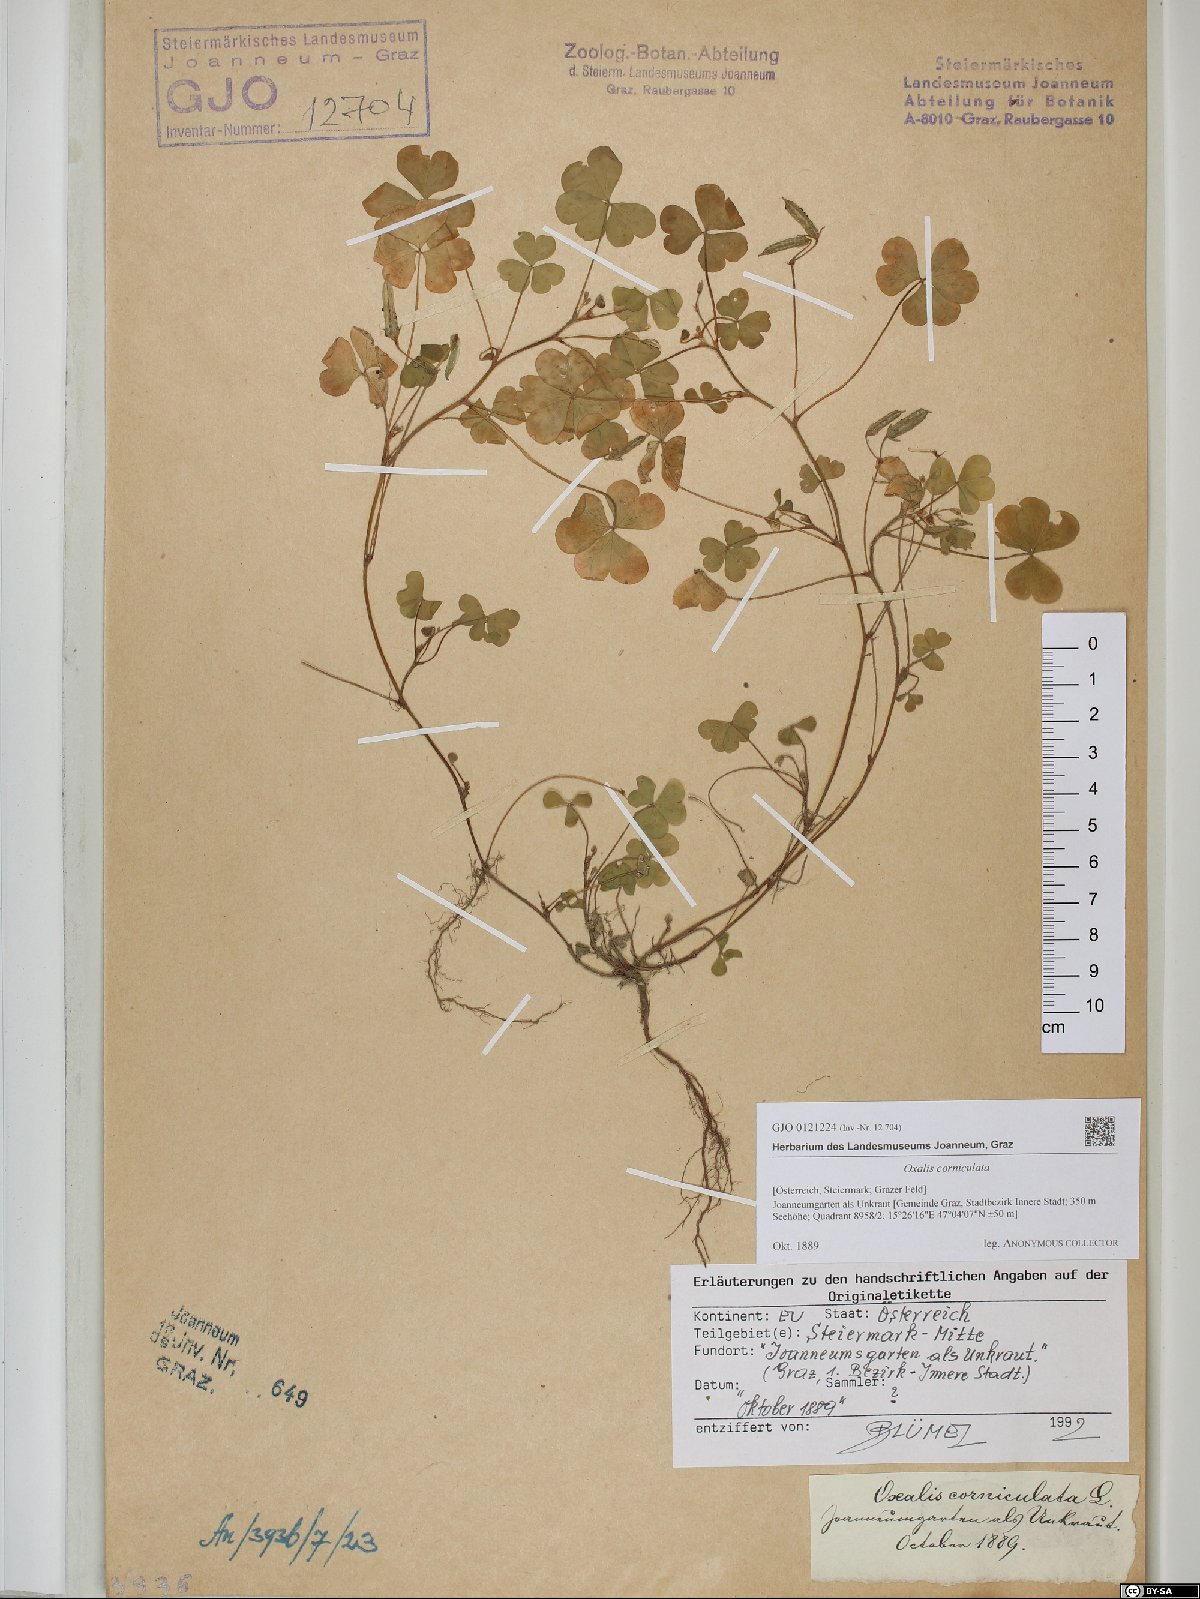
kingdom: Plantae
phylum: Tracheophyta
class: Magnoliopsida
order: Oxalidales
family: Oxalidaceae
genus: Oxalis
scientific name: Oxalis corniculata
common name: Procumbent yellow-sorrel
